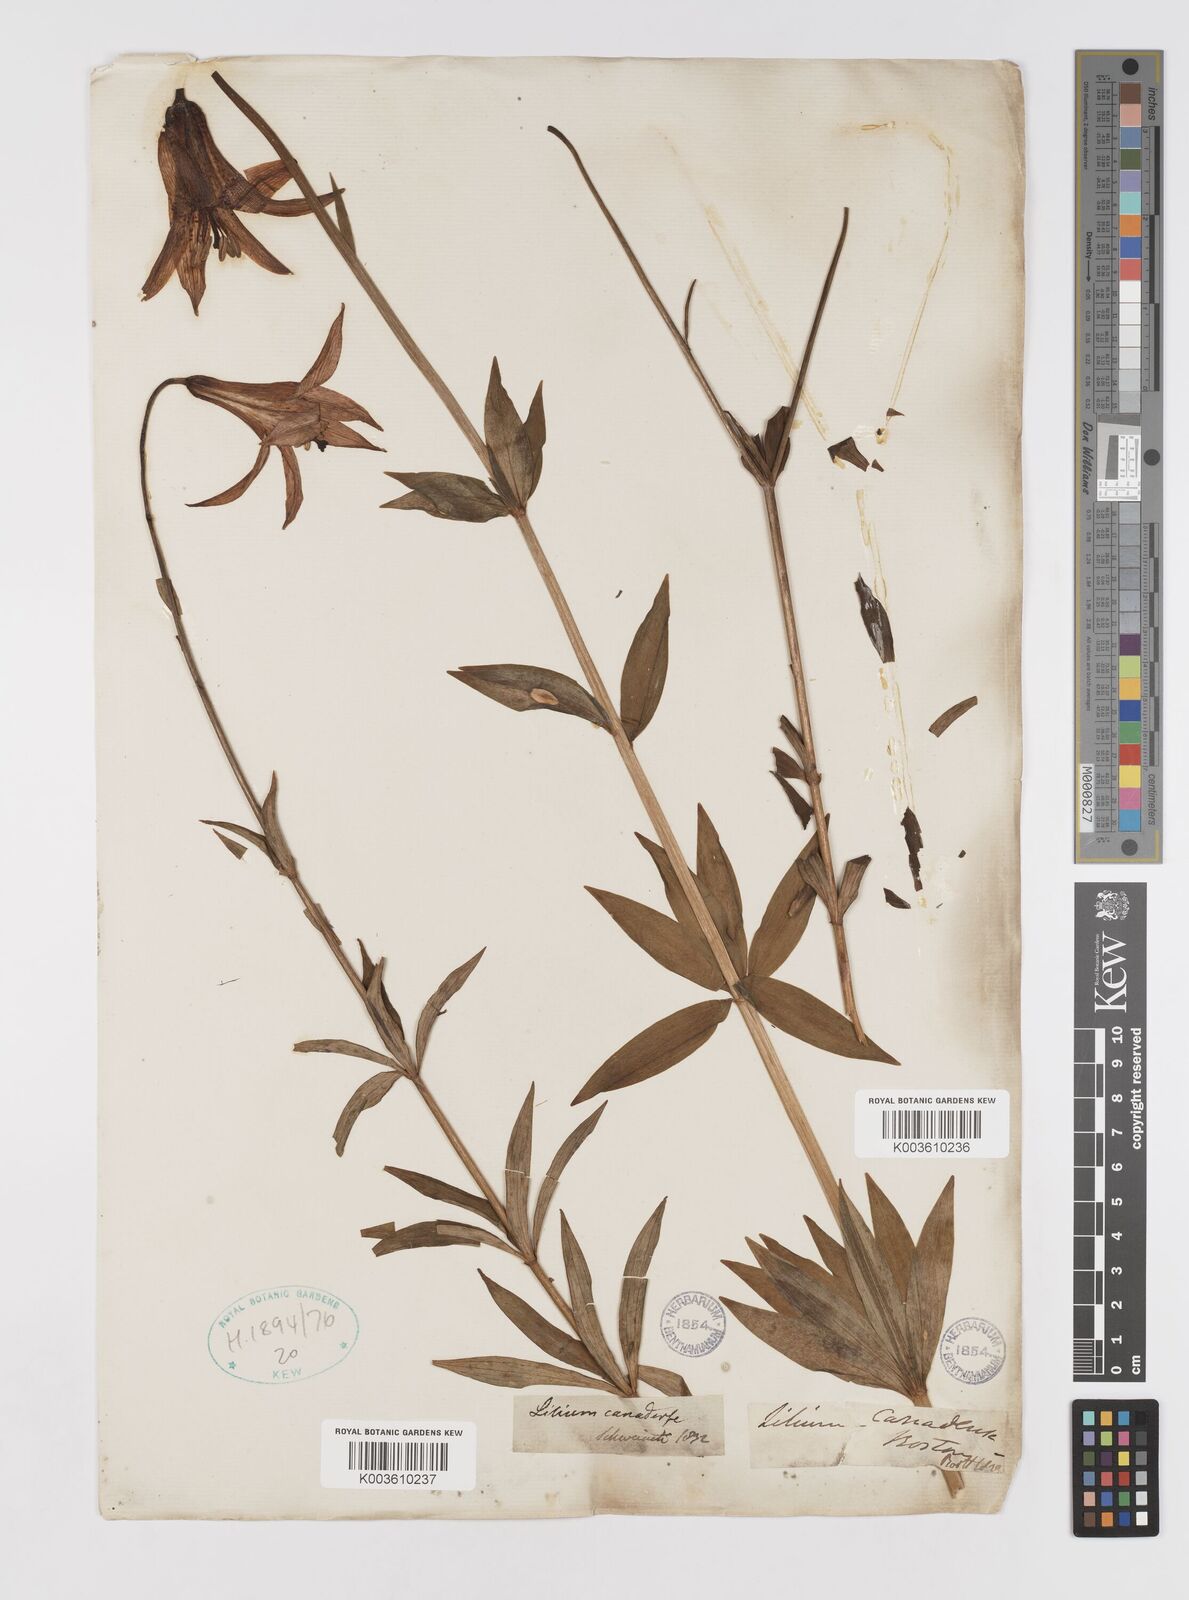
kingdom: Plantae
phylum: Tracheophyta
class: Liliopsida
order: Liliales
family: Liliaceae
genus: Lilium
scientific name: Lilium canadense
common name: Canada lily
